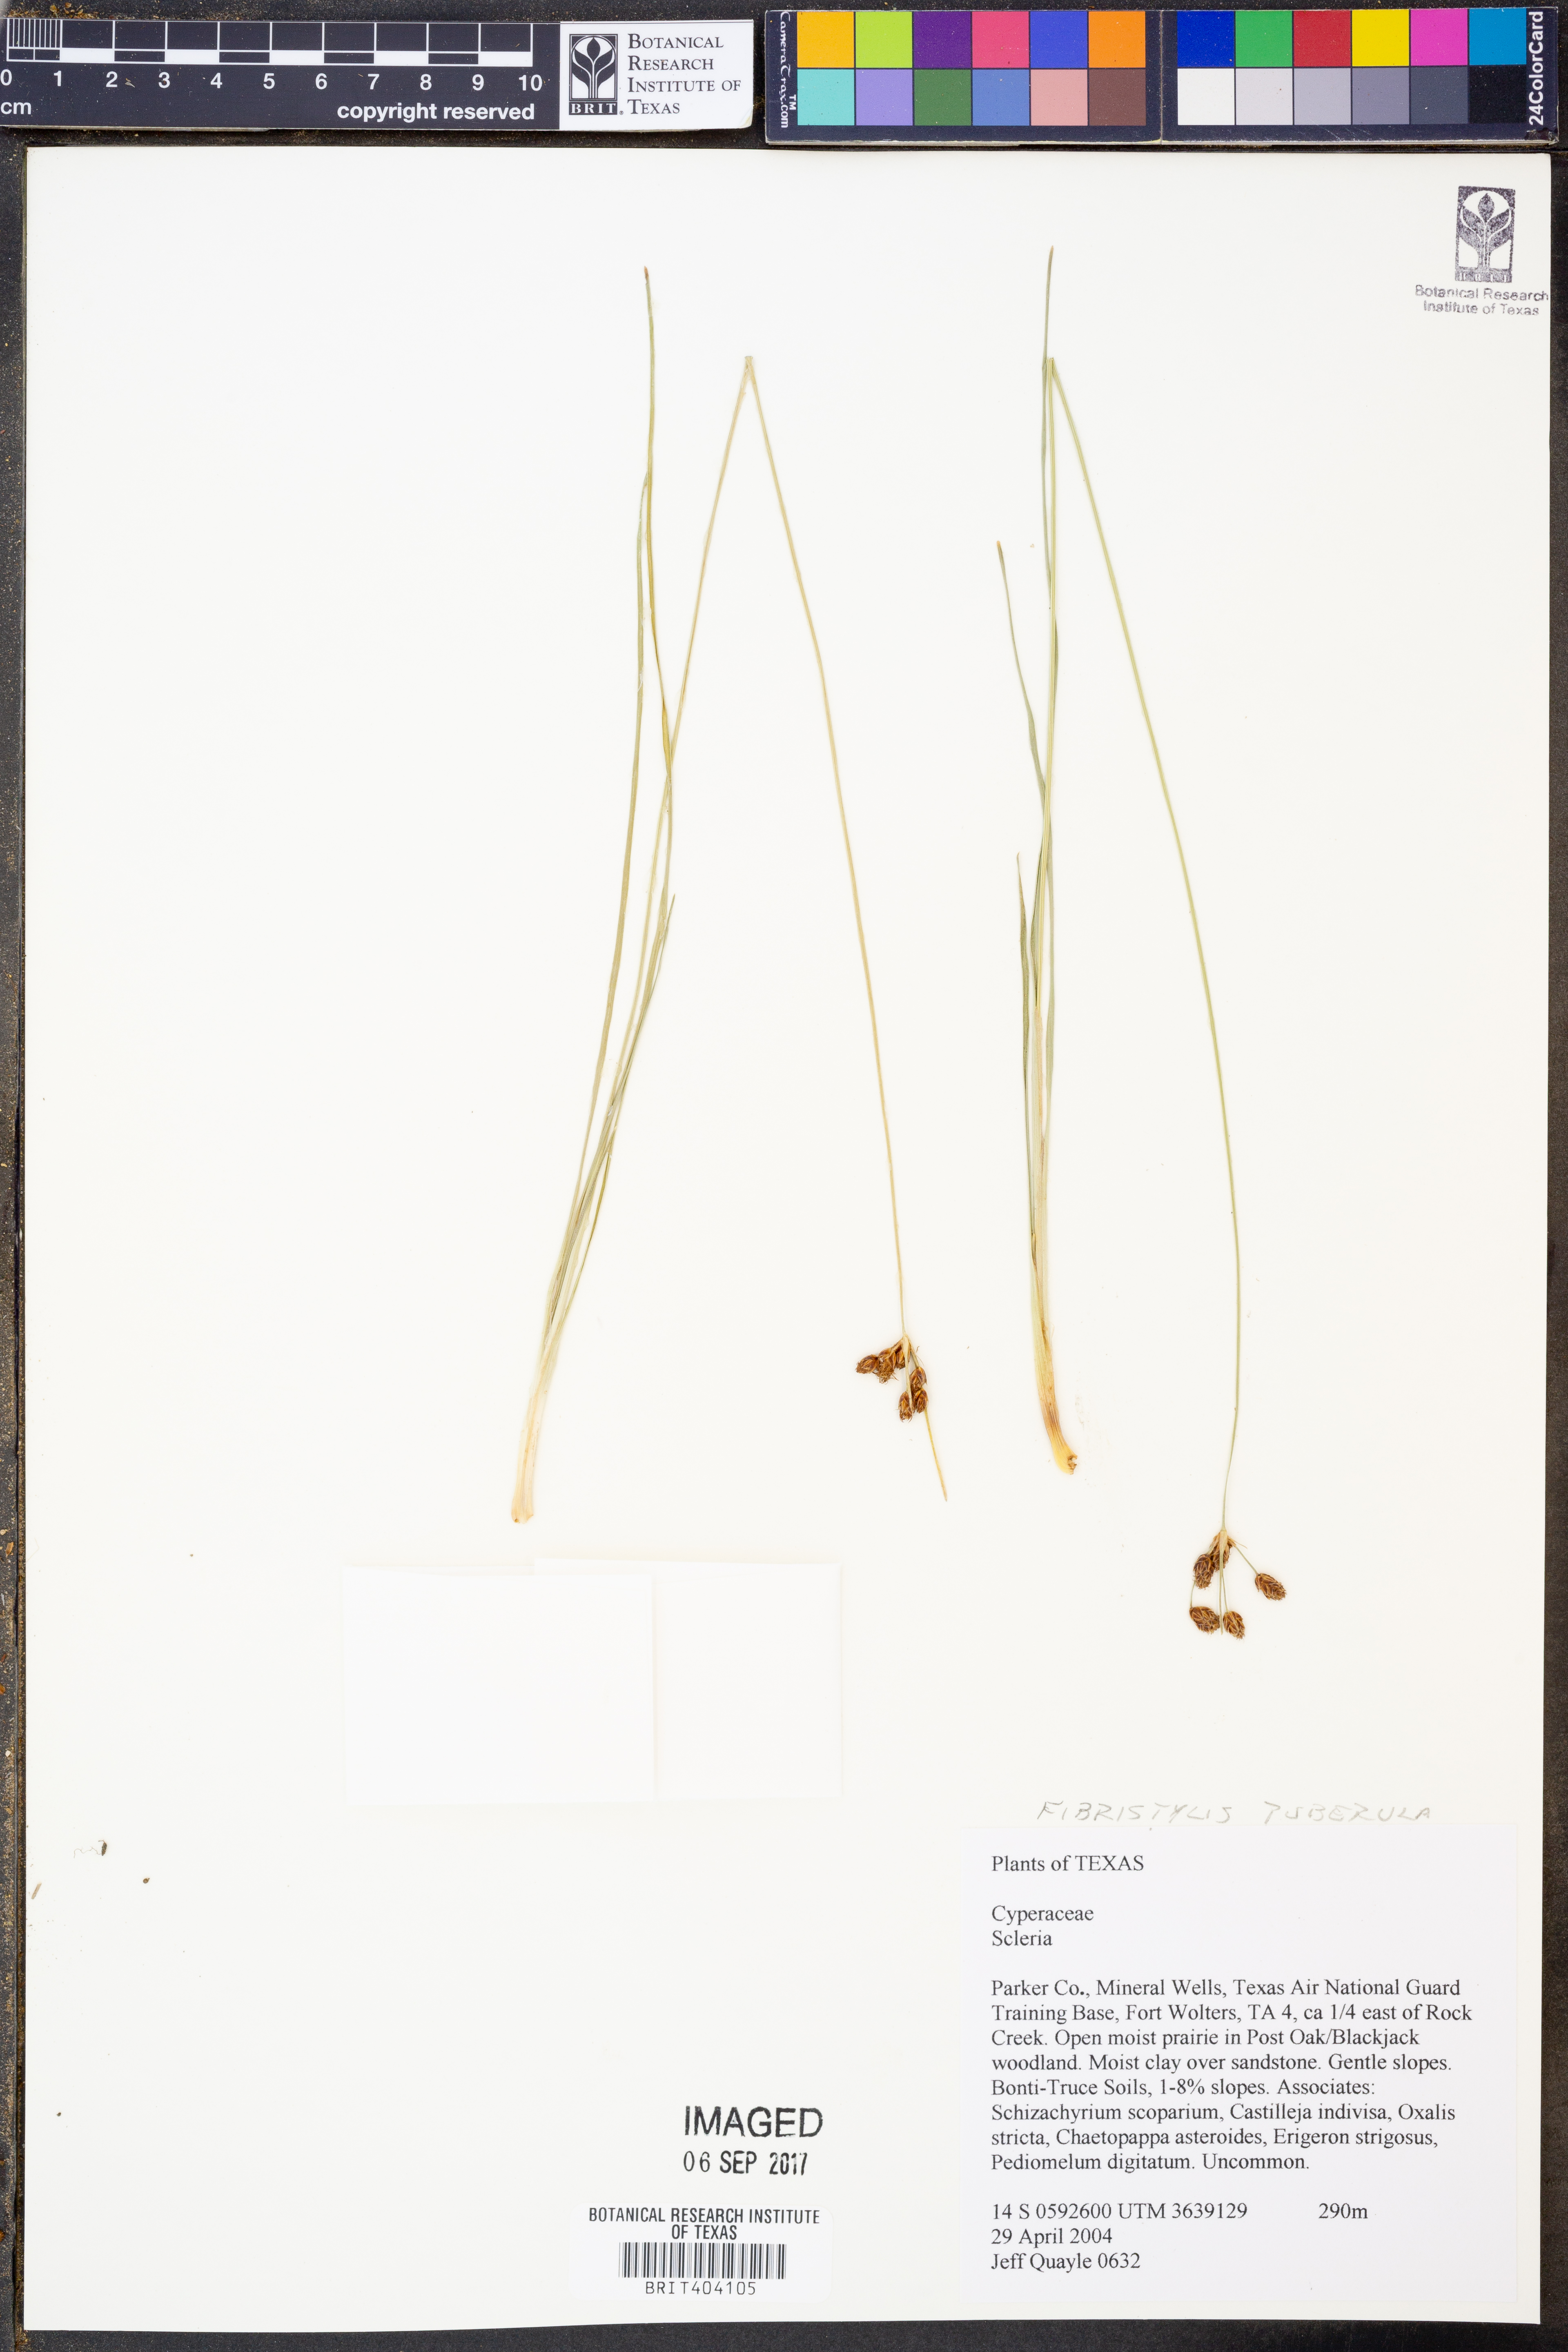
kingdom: Plantae
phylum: Tracheophyta
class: Liliopsida
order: Poales
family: Cyperaceae
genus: Fimbristylis
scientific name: Fimbristylis puberula
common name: Hairy fimbristylis
